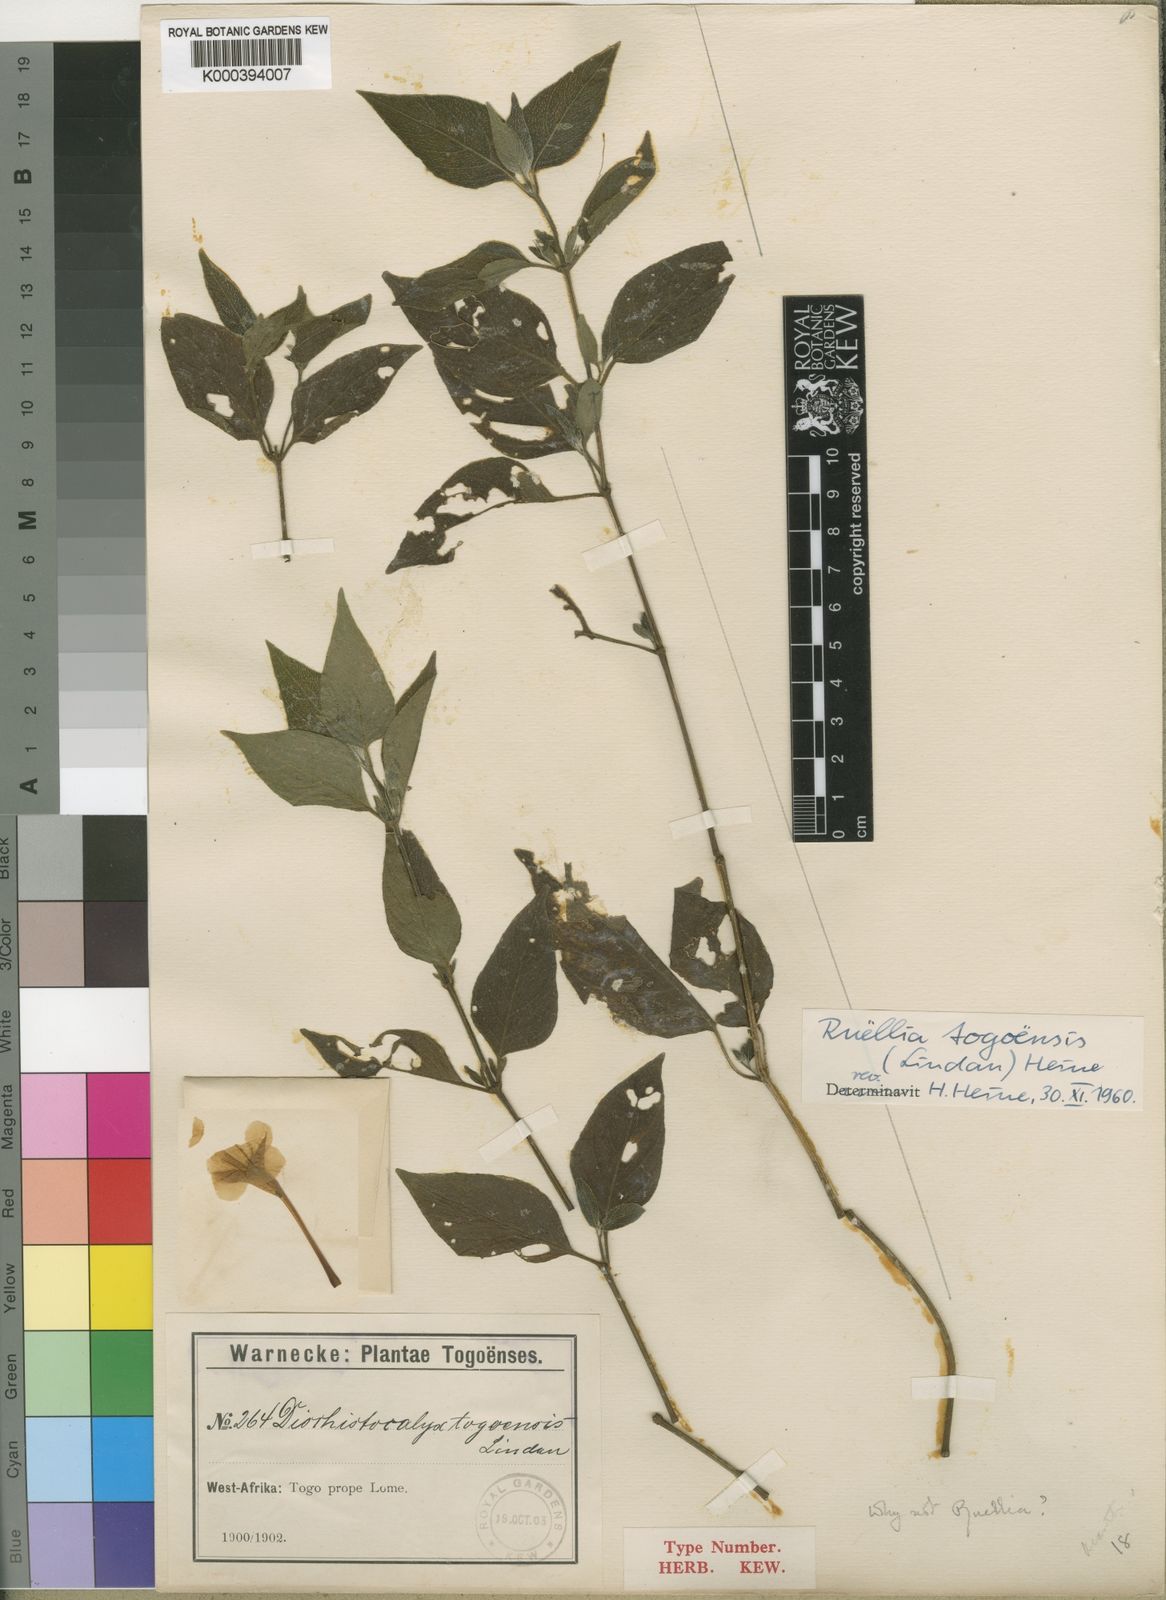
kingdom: Plantae
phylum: Tracheophyta
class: Magnoliopsida
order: Lamiales
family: Acanthaceae
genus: Ruellia
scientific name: Ruellia togoensis
